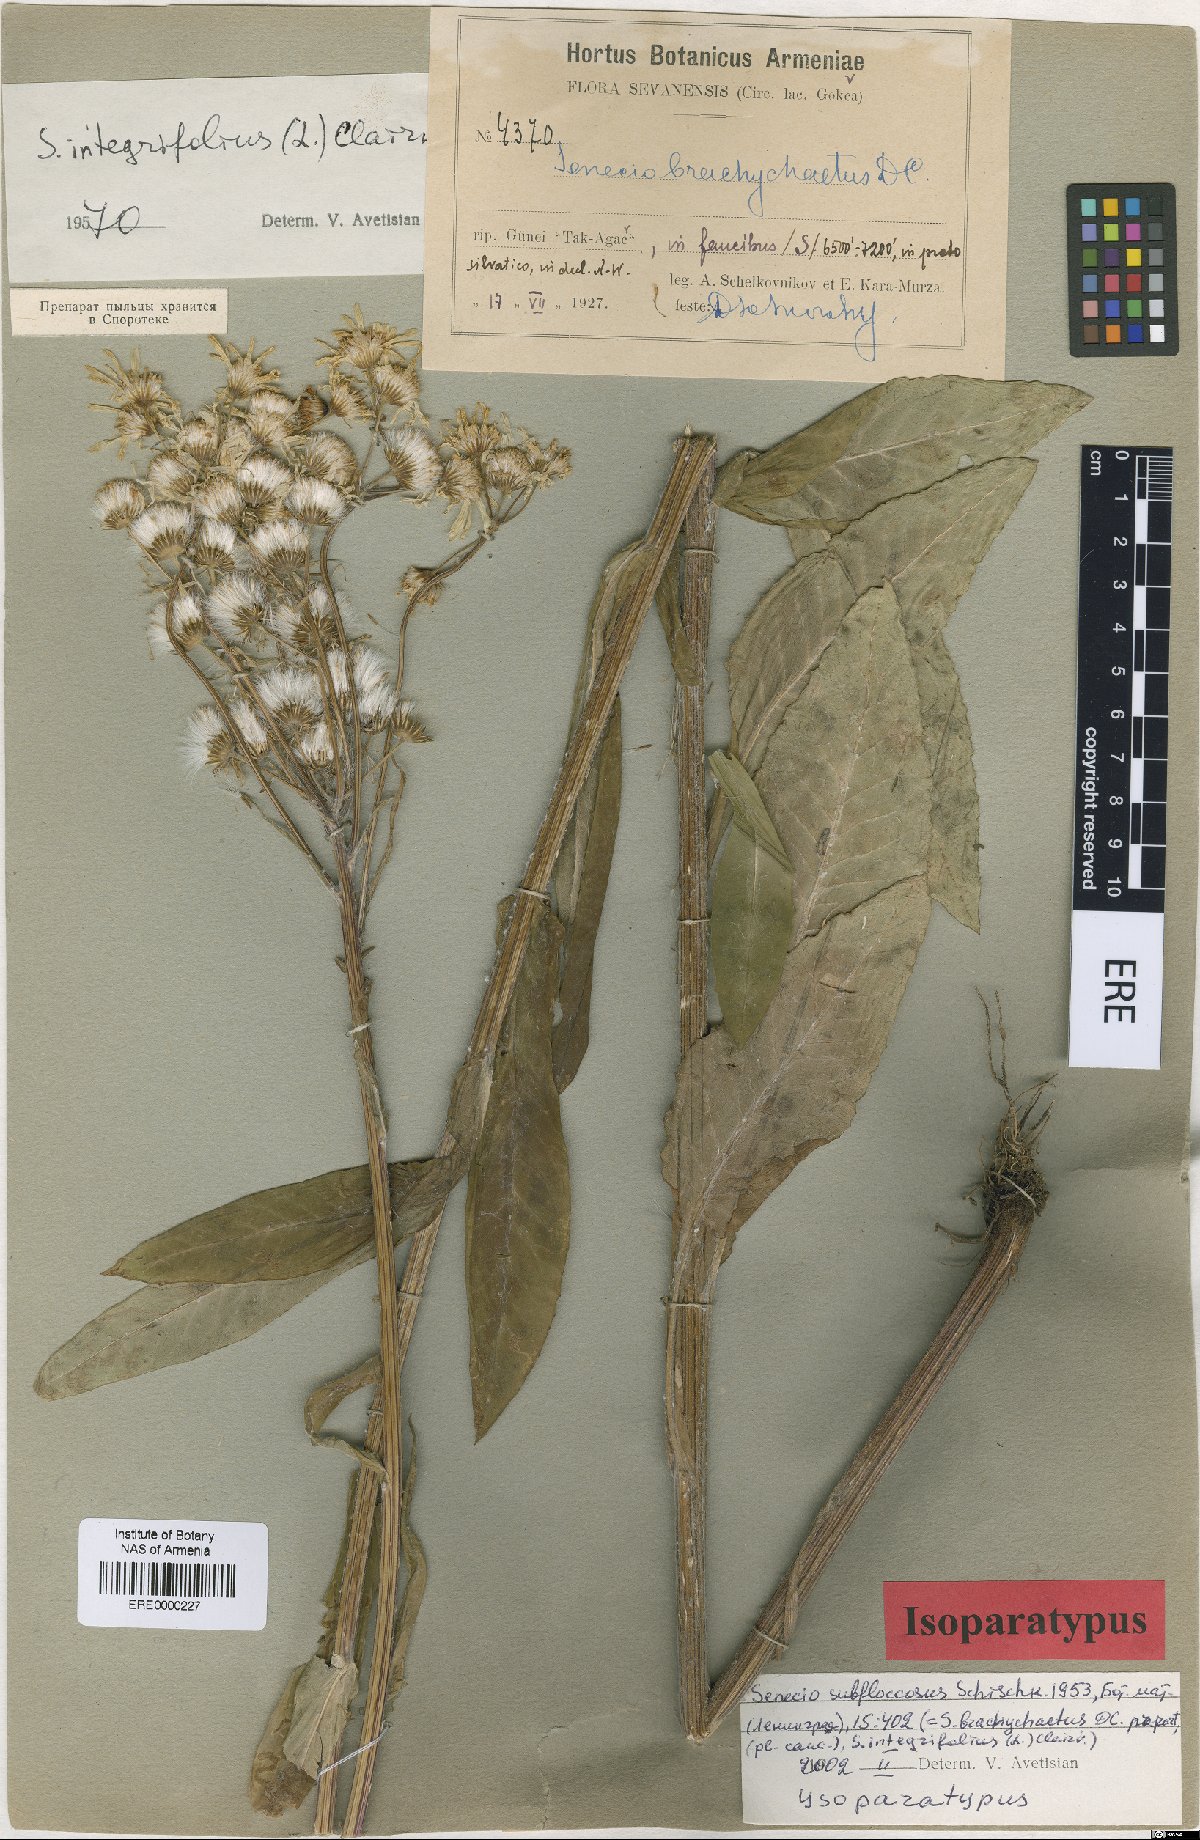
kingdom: Plantae
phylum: Tracheophyta
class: Magnoliopsida
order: Asterales
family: Asteraceae
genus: Tephroseris
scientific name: Tephroseris cladobotrys
